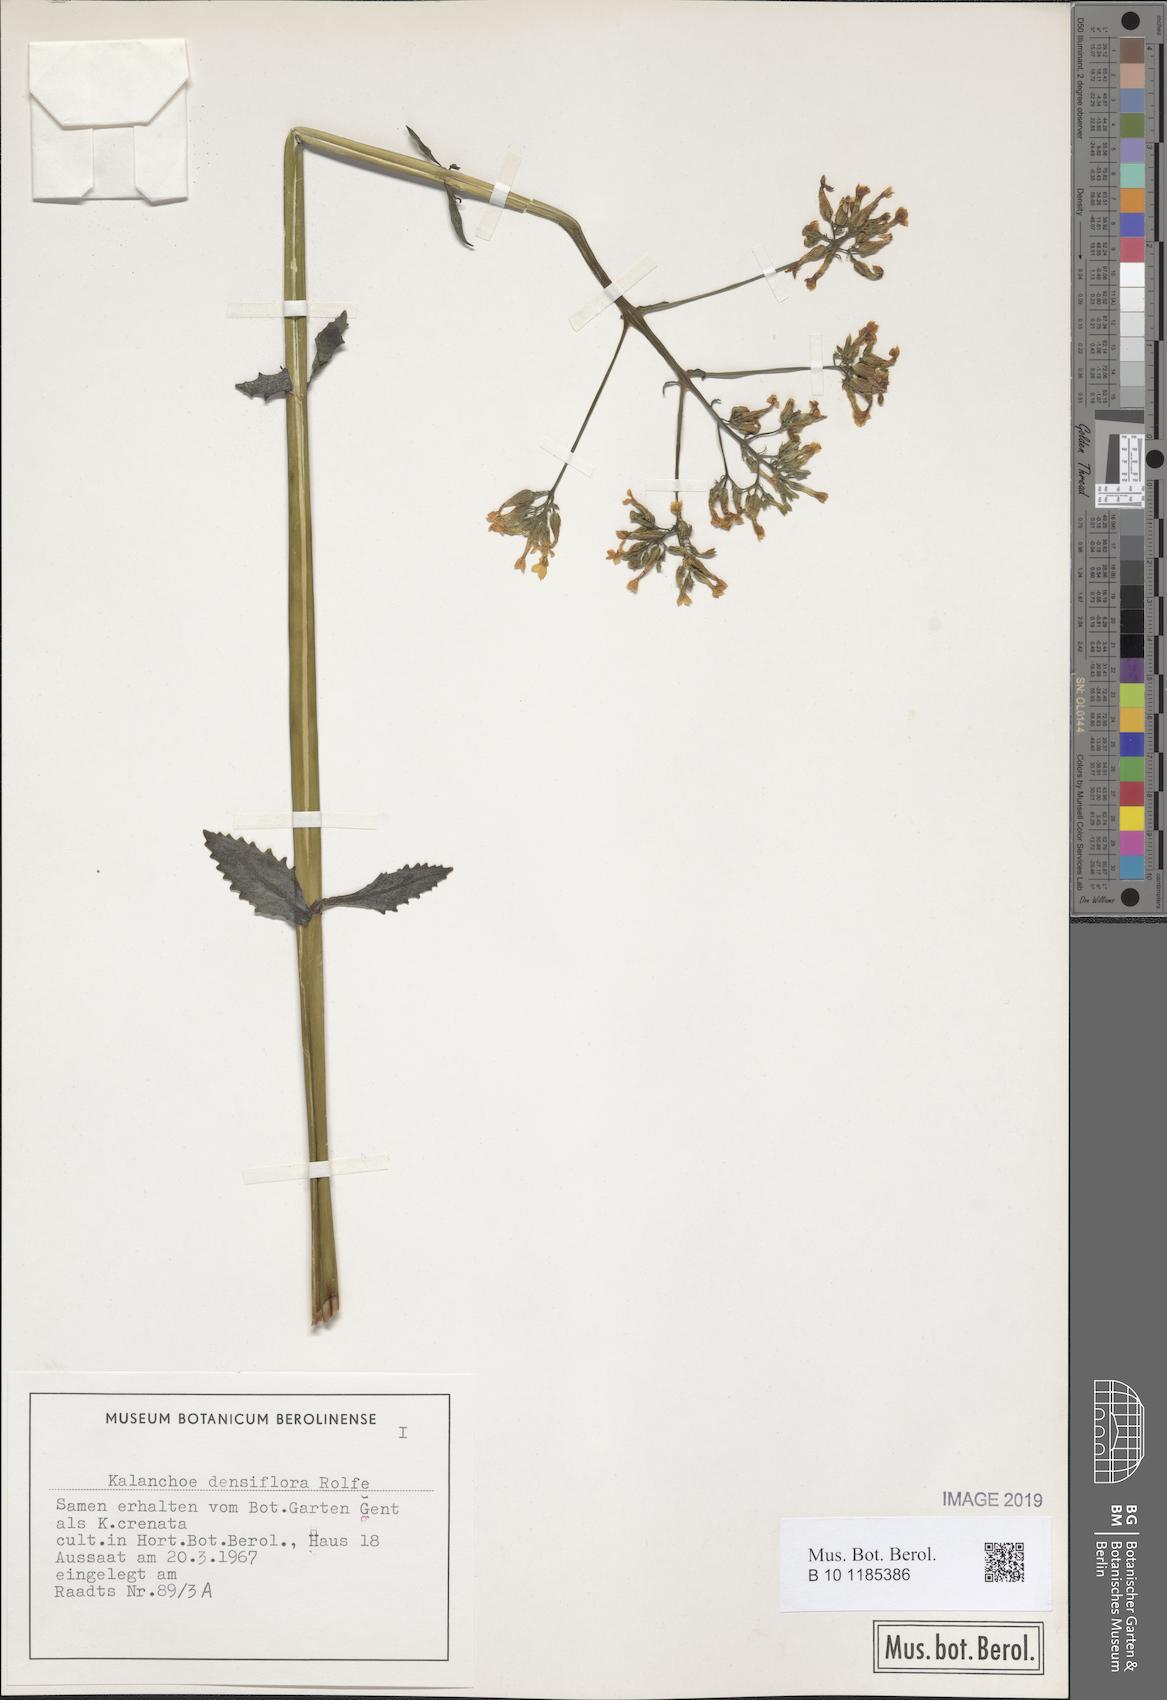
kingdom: Plantae
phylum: Tracheophyta
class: Magnoliopsida
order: Saxifragales
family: Crassulaceae
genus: Kalanchoe
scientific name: Kalanchoe densiflora
